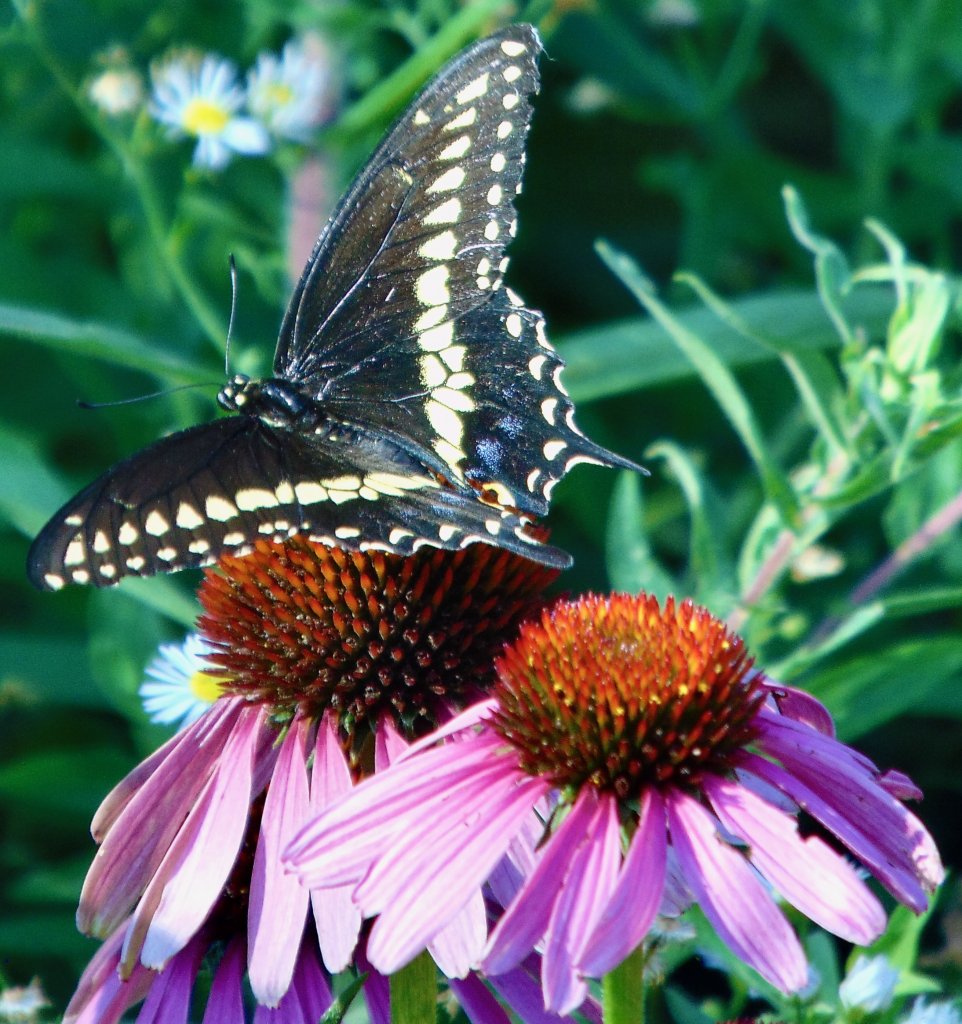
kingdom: Animalia
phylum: Arthropoda
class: Insecta
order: Lepidoptera
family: Papilionidae
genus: Papilio
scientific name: Papilio polyxenes
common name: Black Swallowtail
